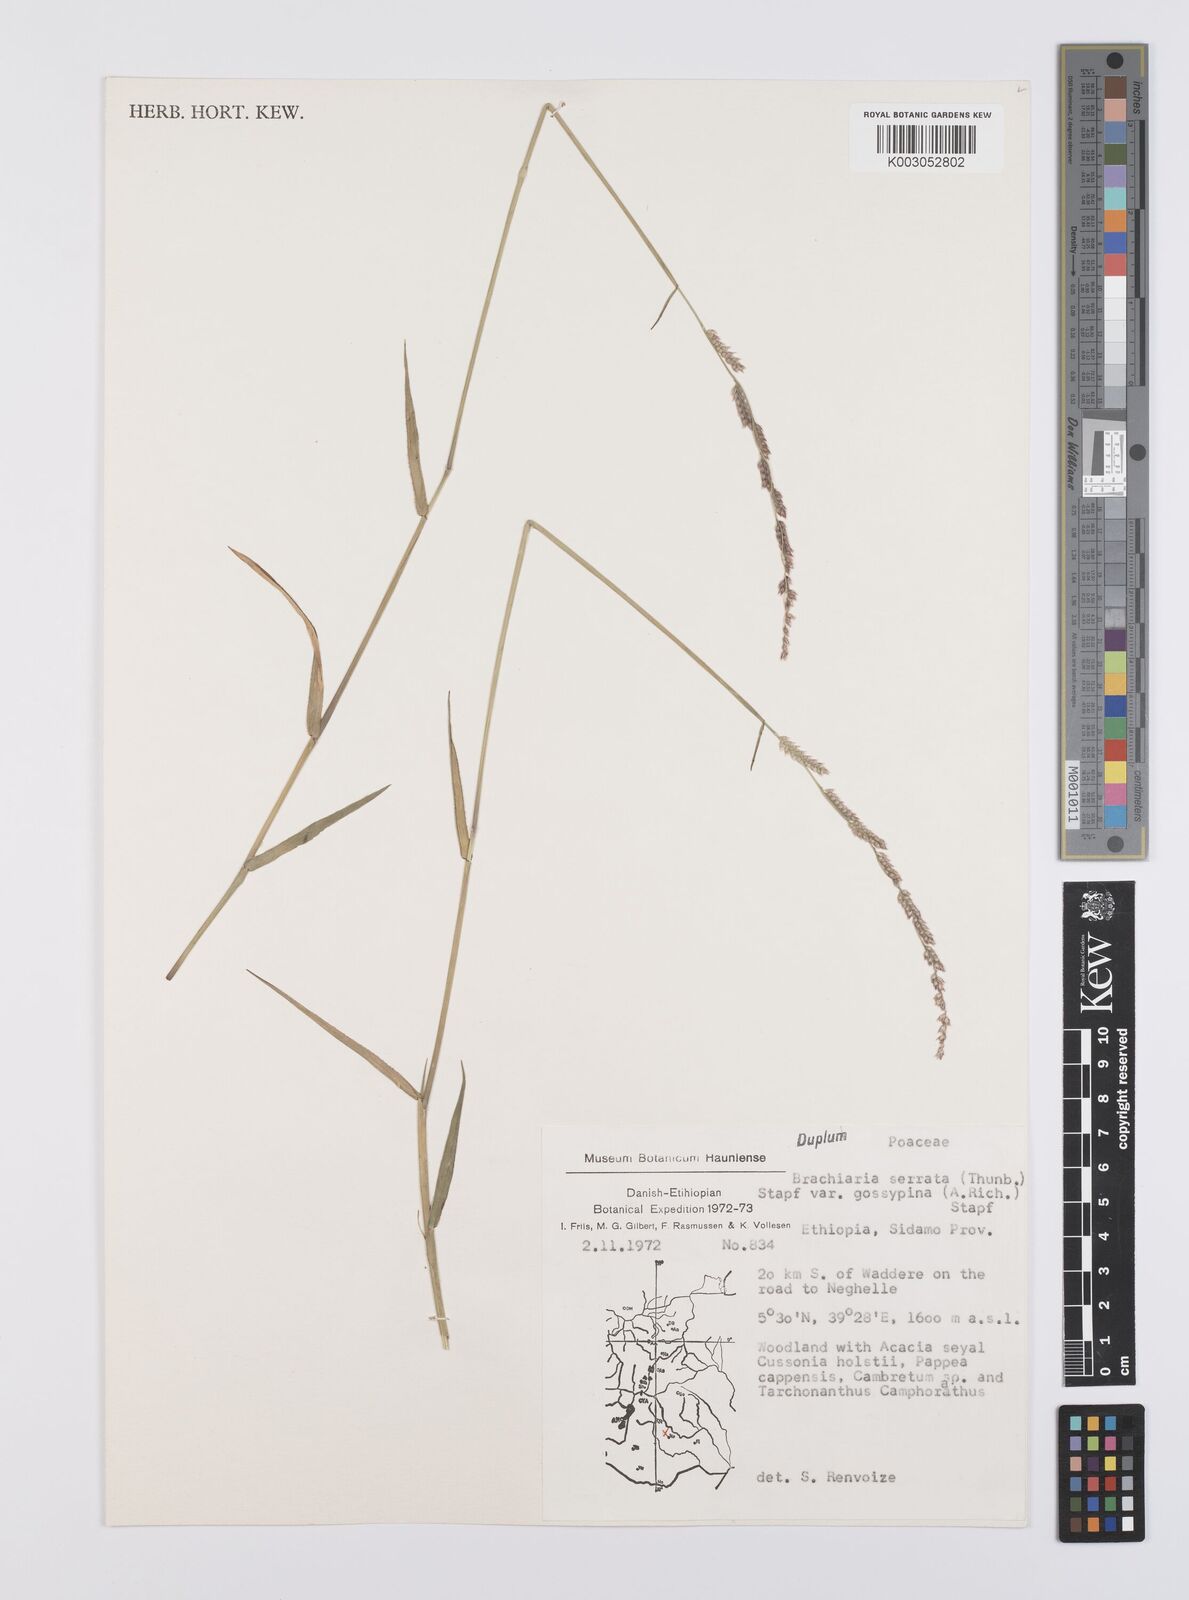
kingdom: Plantae
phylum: Tracheophyta
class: Liliopsida
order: Poales
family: Poaceae
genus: Urochloa
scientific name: Urochloa serrata
